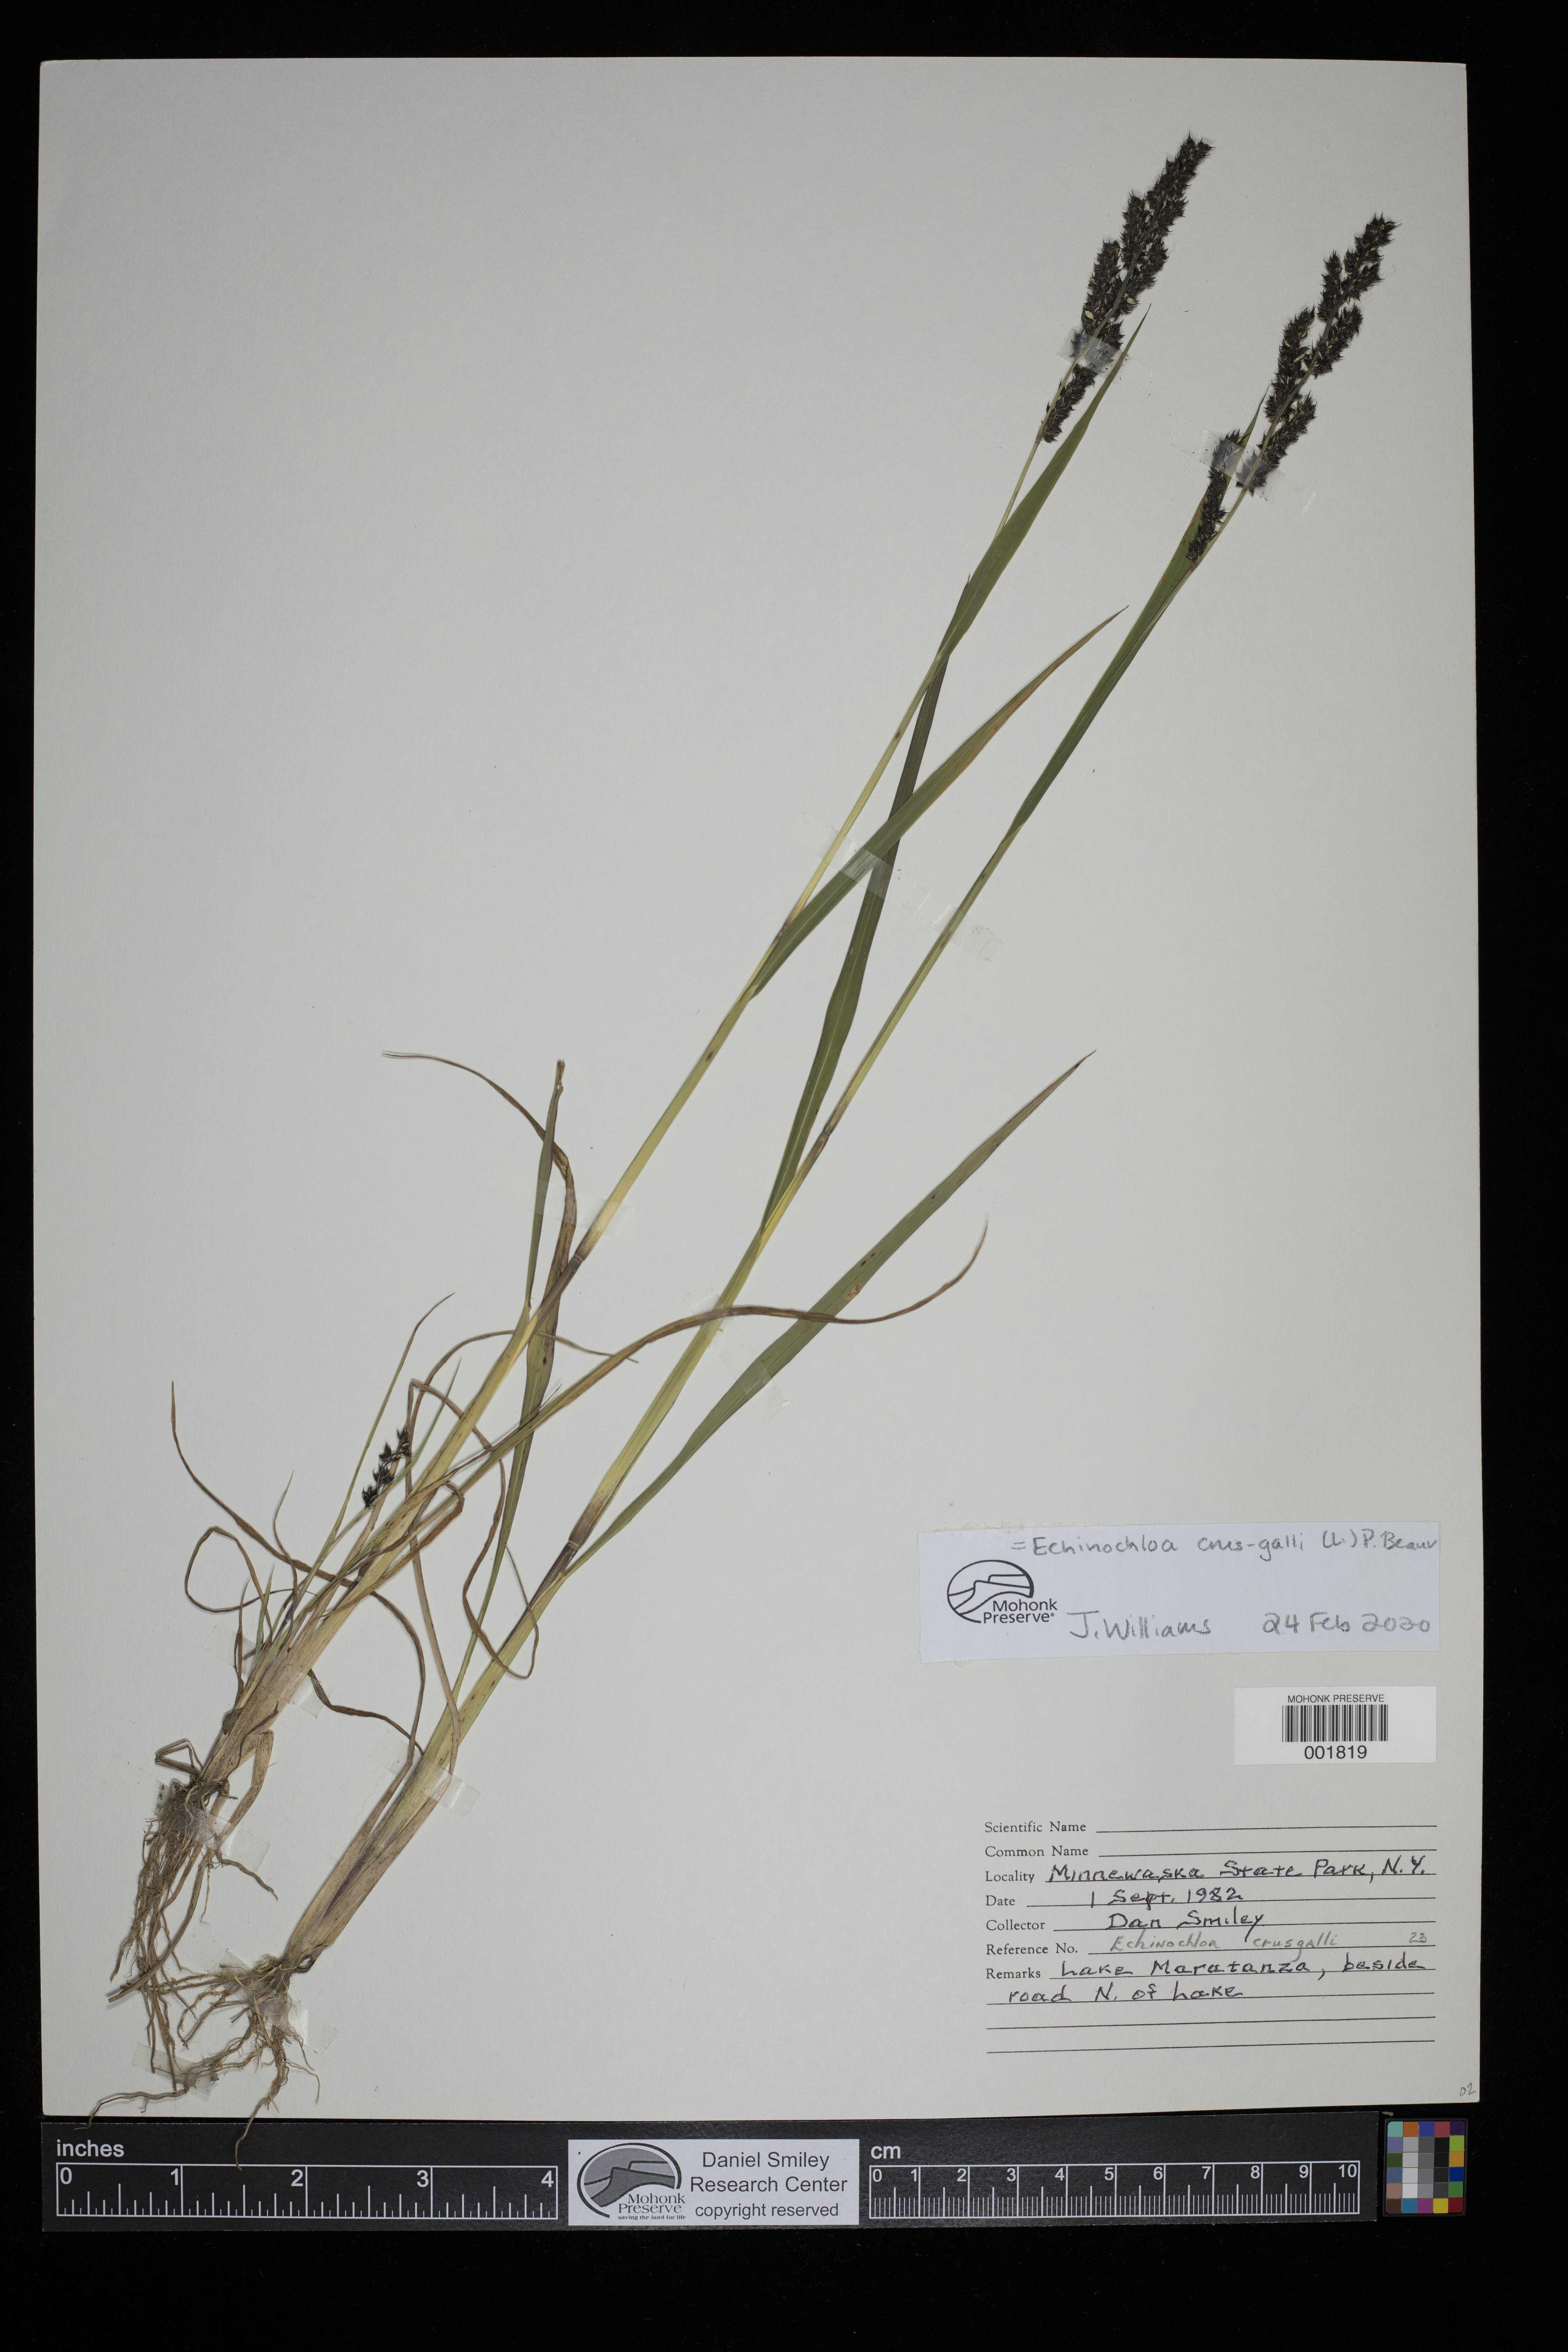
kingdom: Plantae
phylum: Tracheophyta
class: Liliopsida
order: Poales
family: Poaceae
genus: Echinochloa
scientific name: Echinochloa crus-galli
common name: Cockspur
